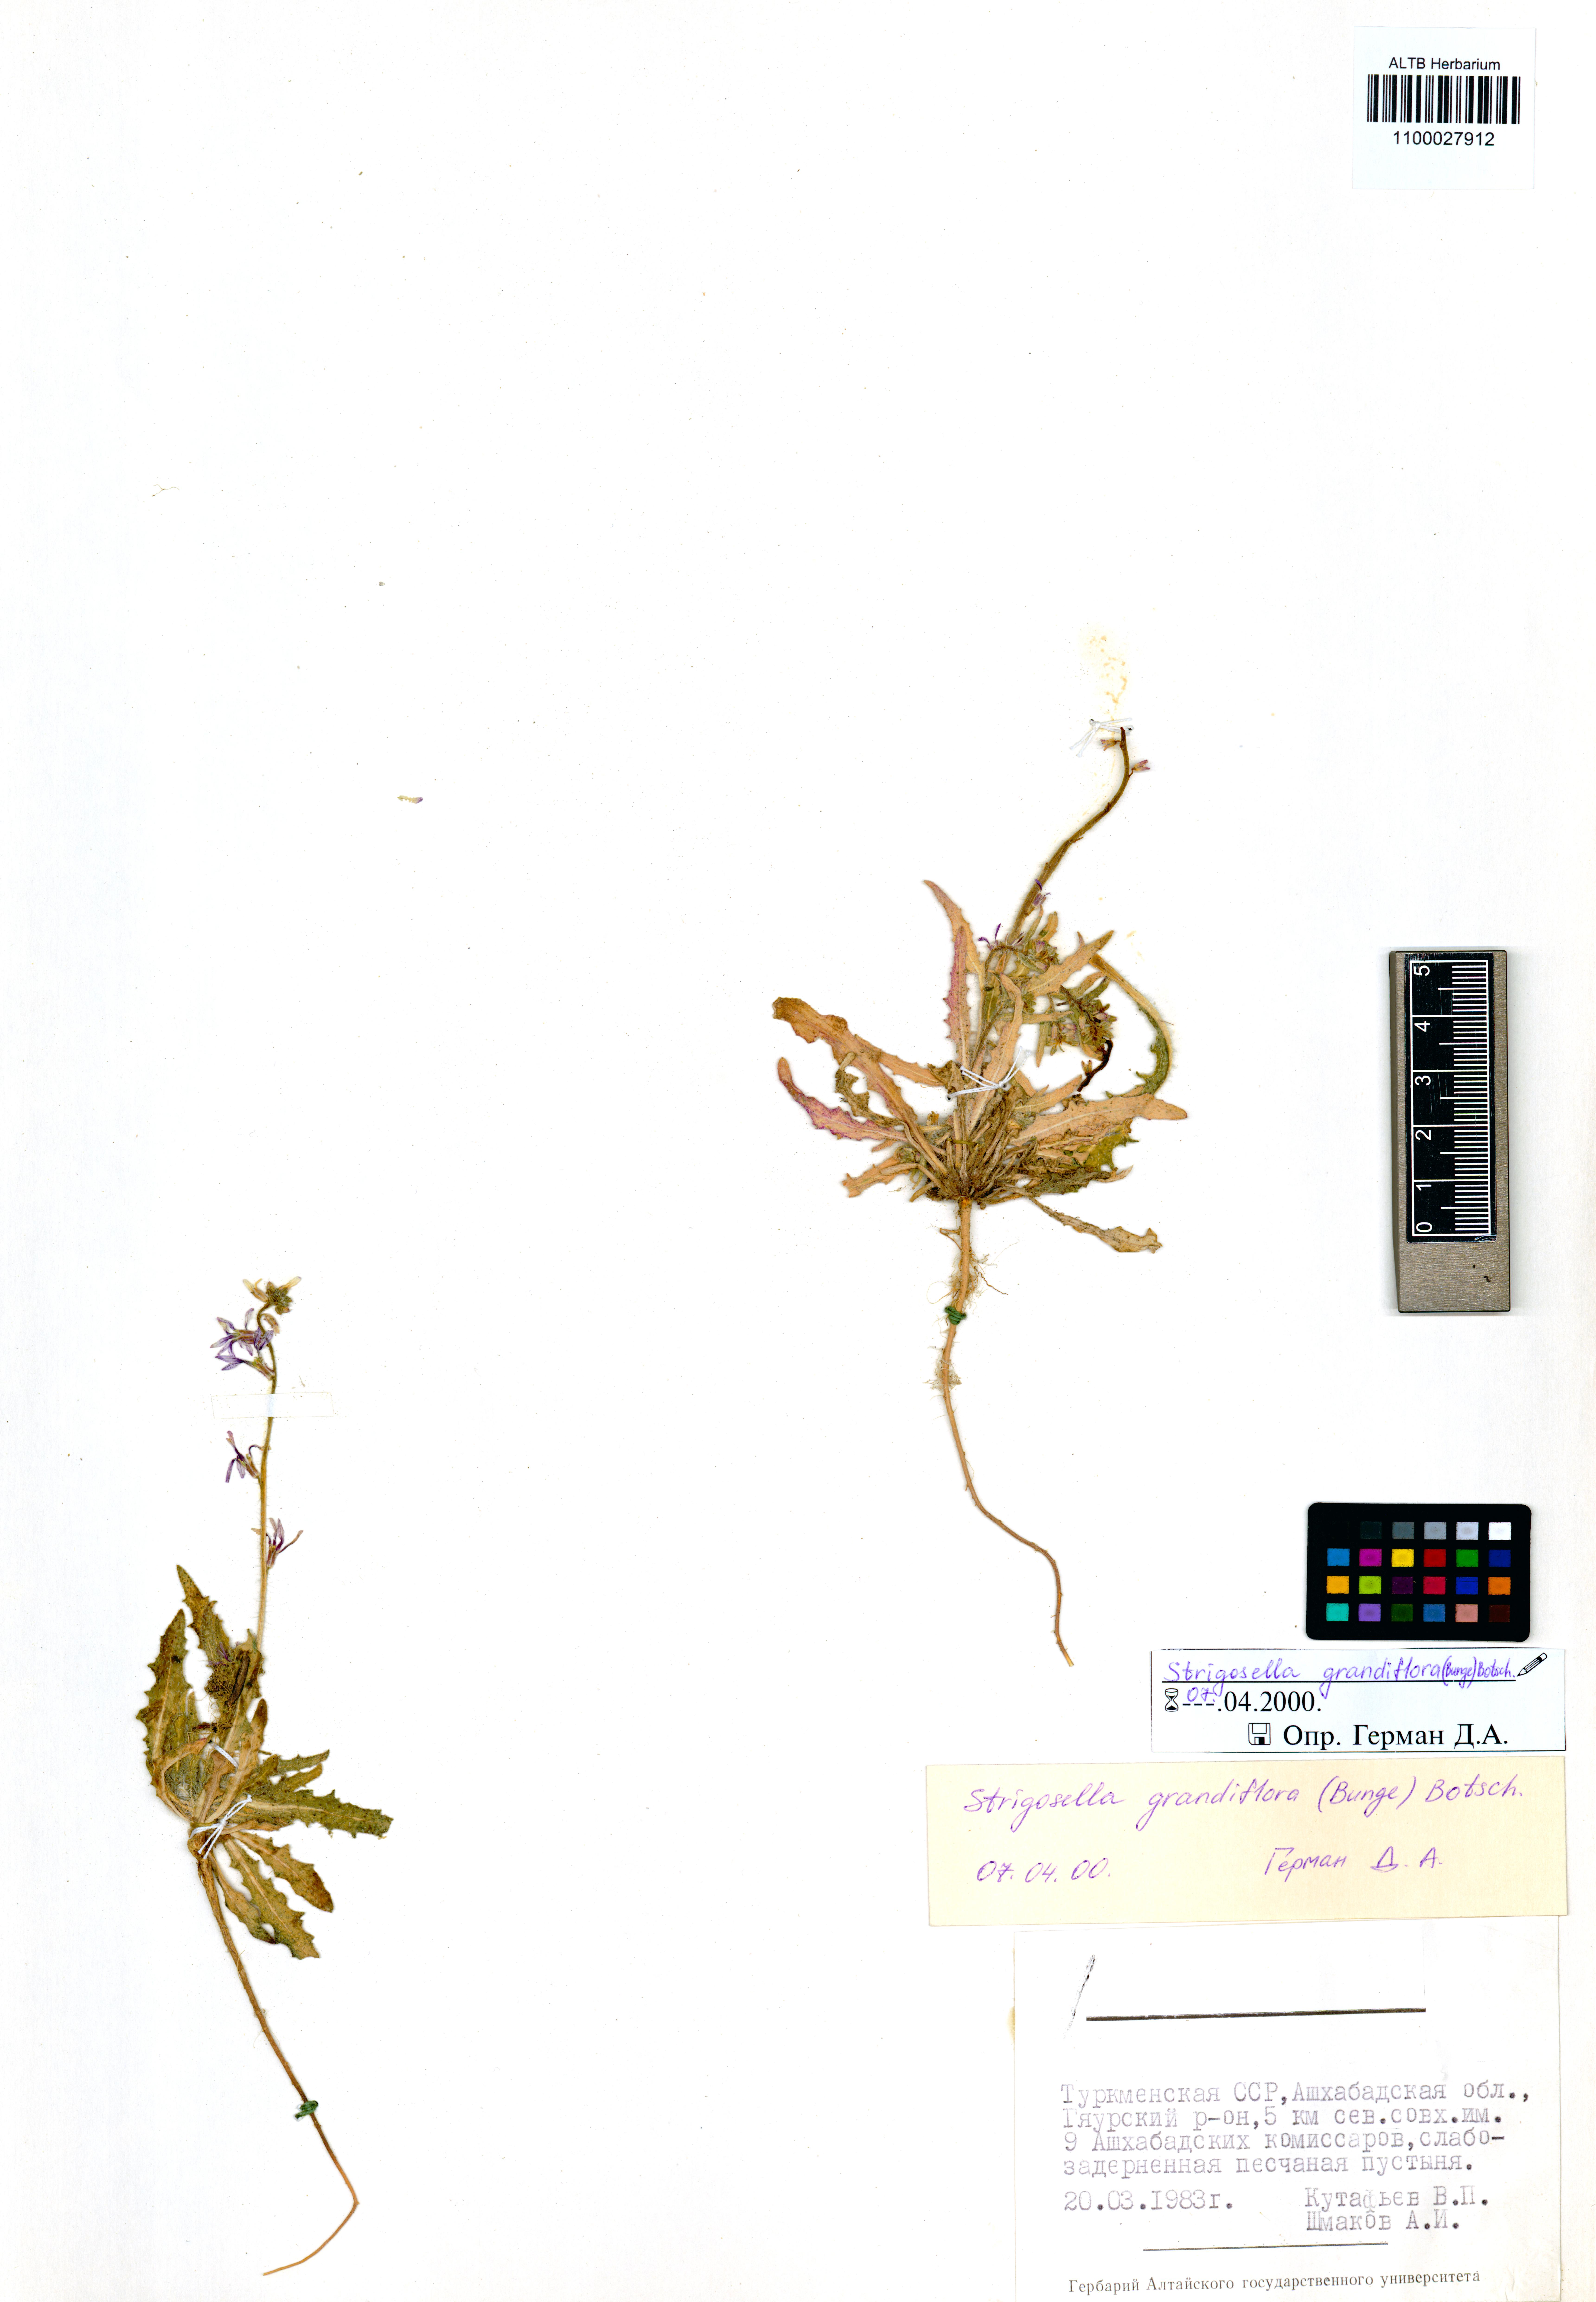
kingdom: Plantae
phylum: Tracheophyta
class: Magnoliopsida
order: Brassicales
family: Brassicaceae
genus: Strigosella
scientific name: Strigosella grandiflora
